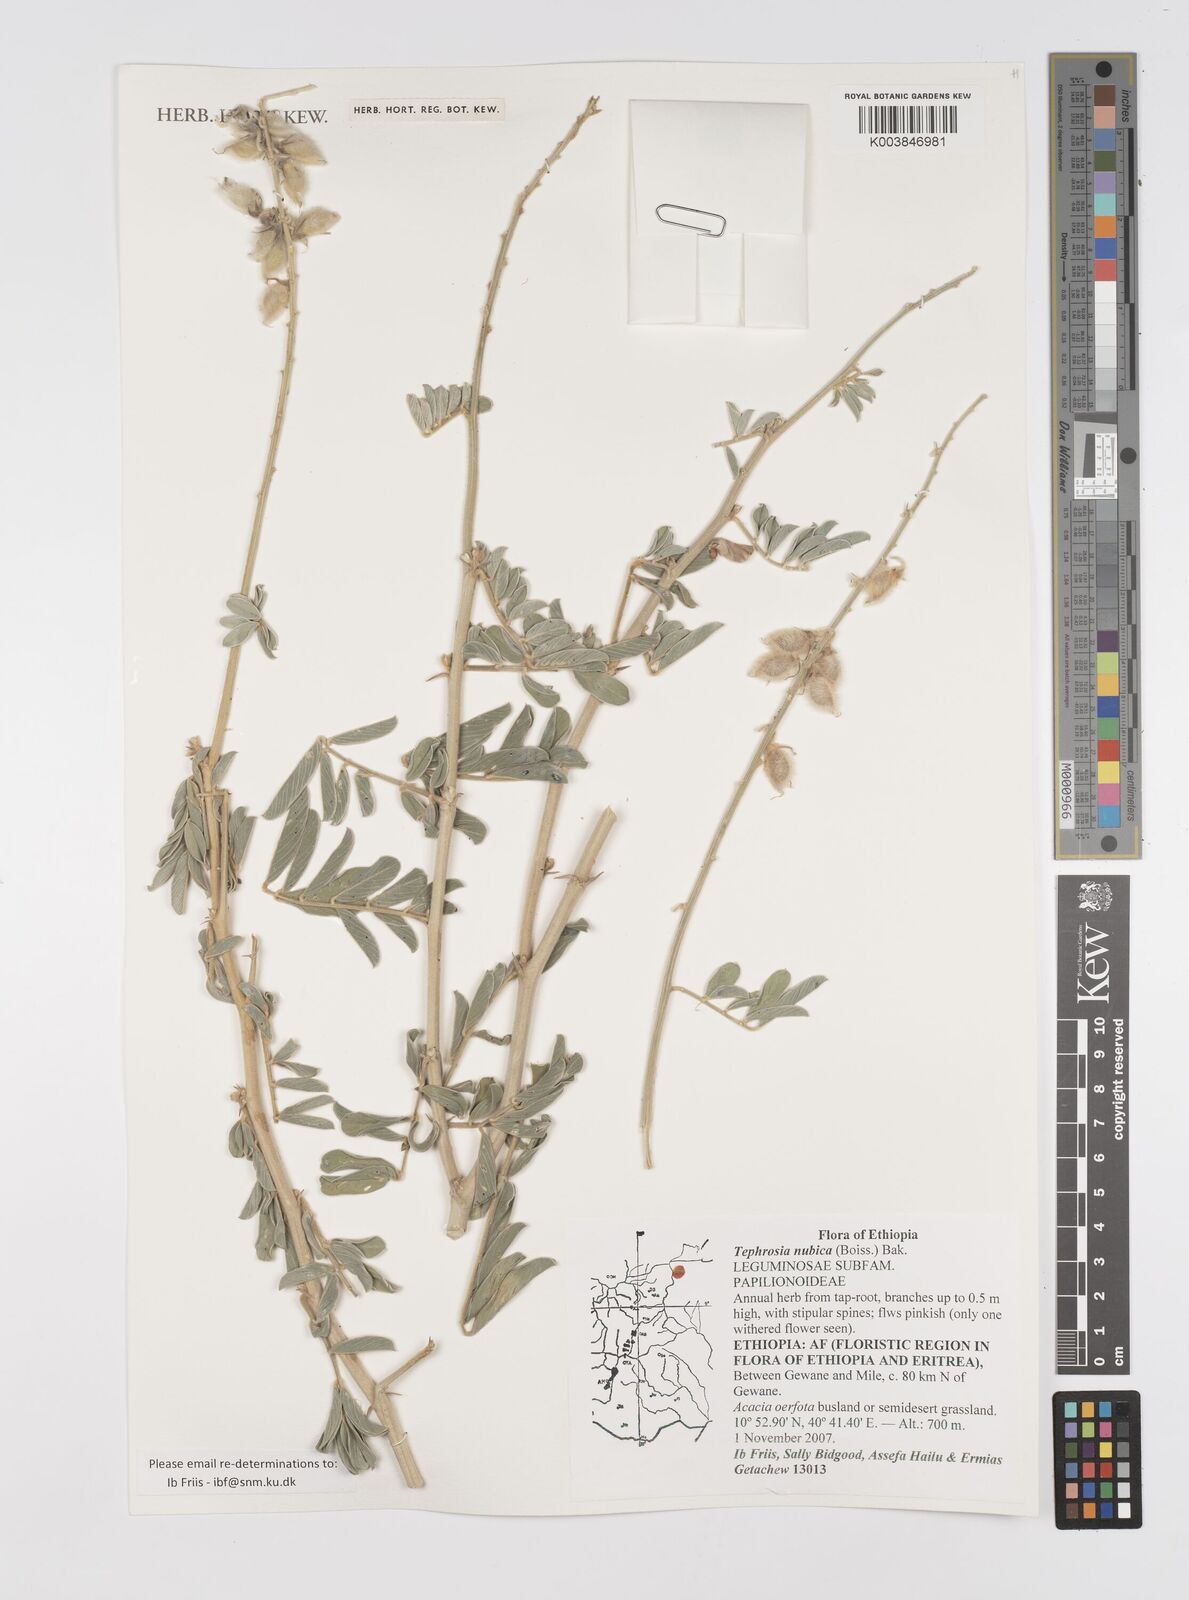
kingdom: Plantae
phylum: Tracheophyta
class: Magnoliopsida
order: Fabales
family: Fabaceae
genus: Tephrosia
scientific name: Tephrosia nubica
